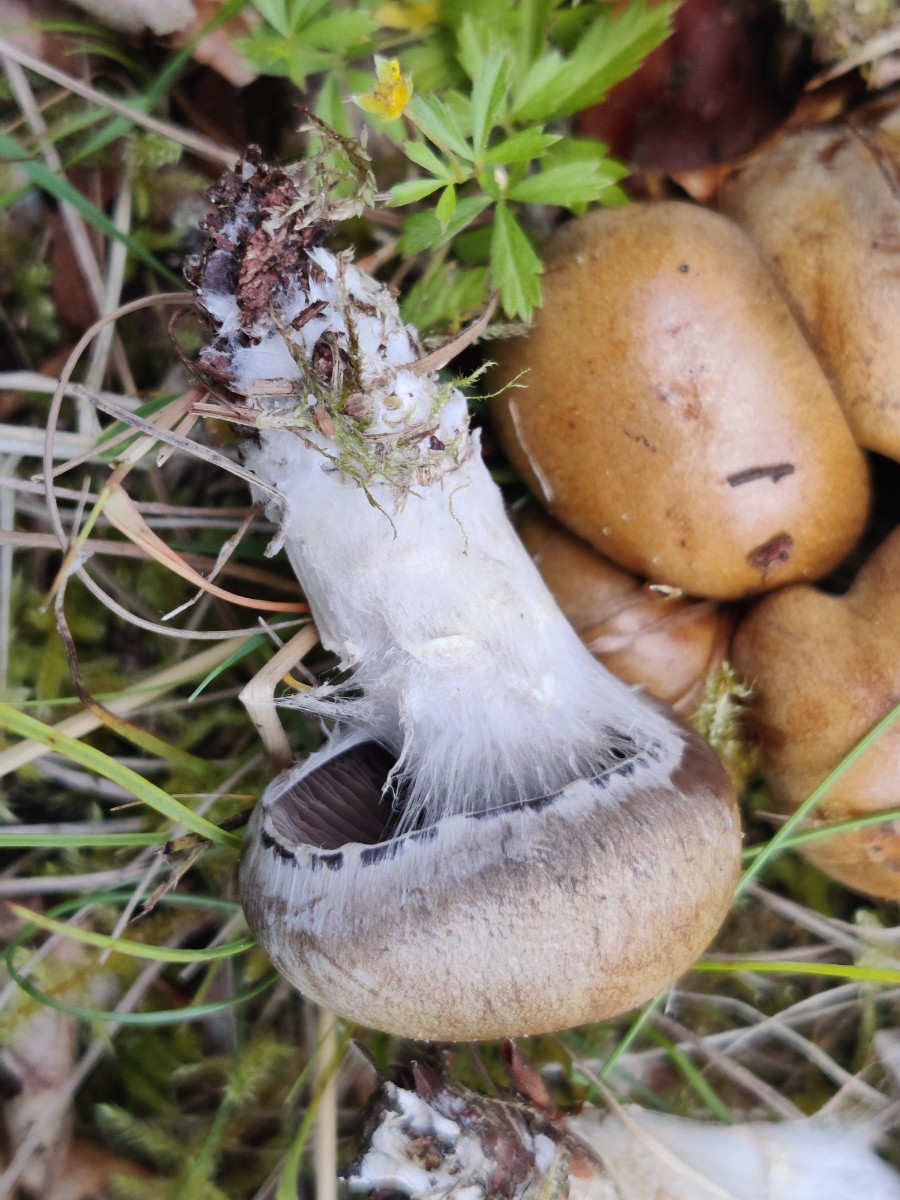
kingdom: Fungi
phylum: Basidiomycota
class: Agaricomycetes
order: Agaricales
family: Cortinariaceae
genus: Cortinarius
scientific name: Cortinarius infractus
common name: galde-slørhat
